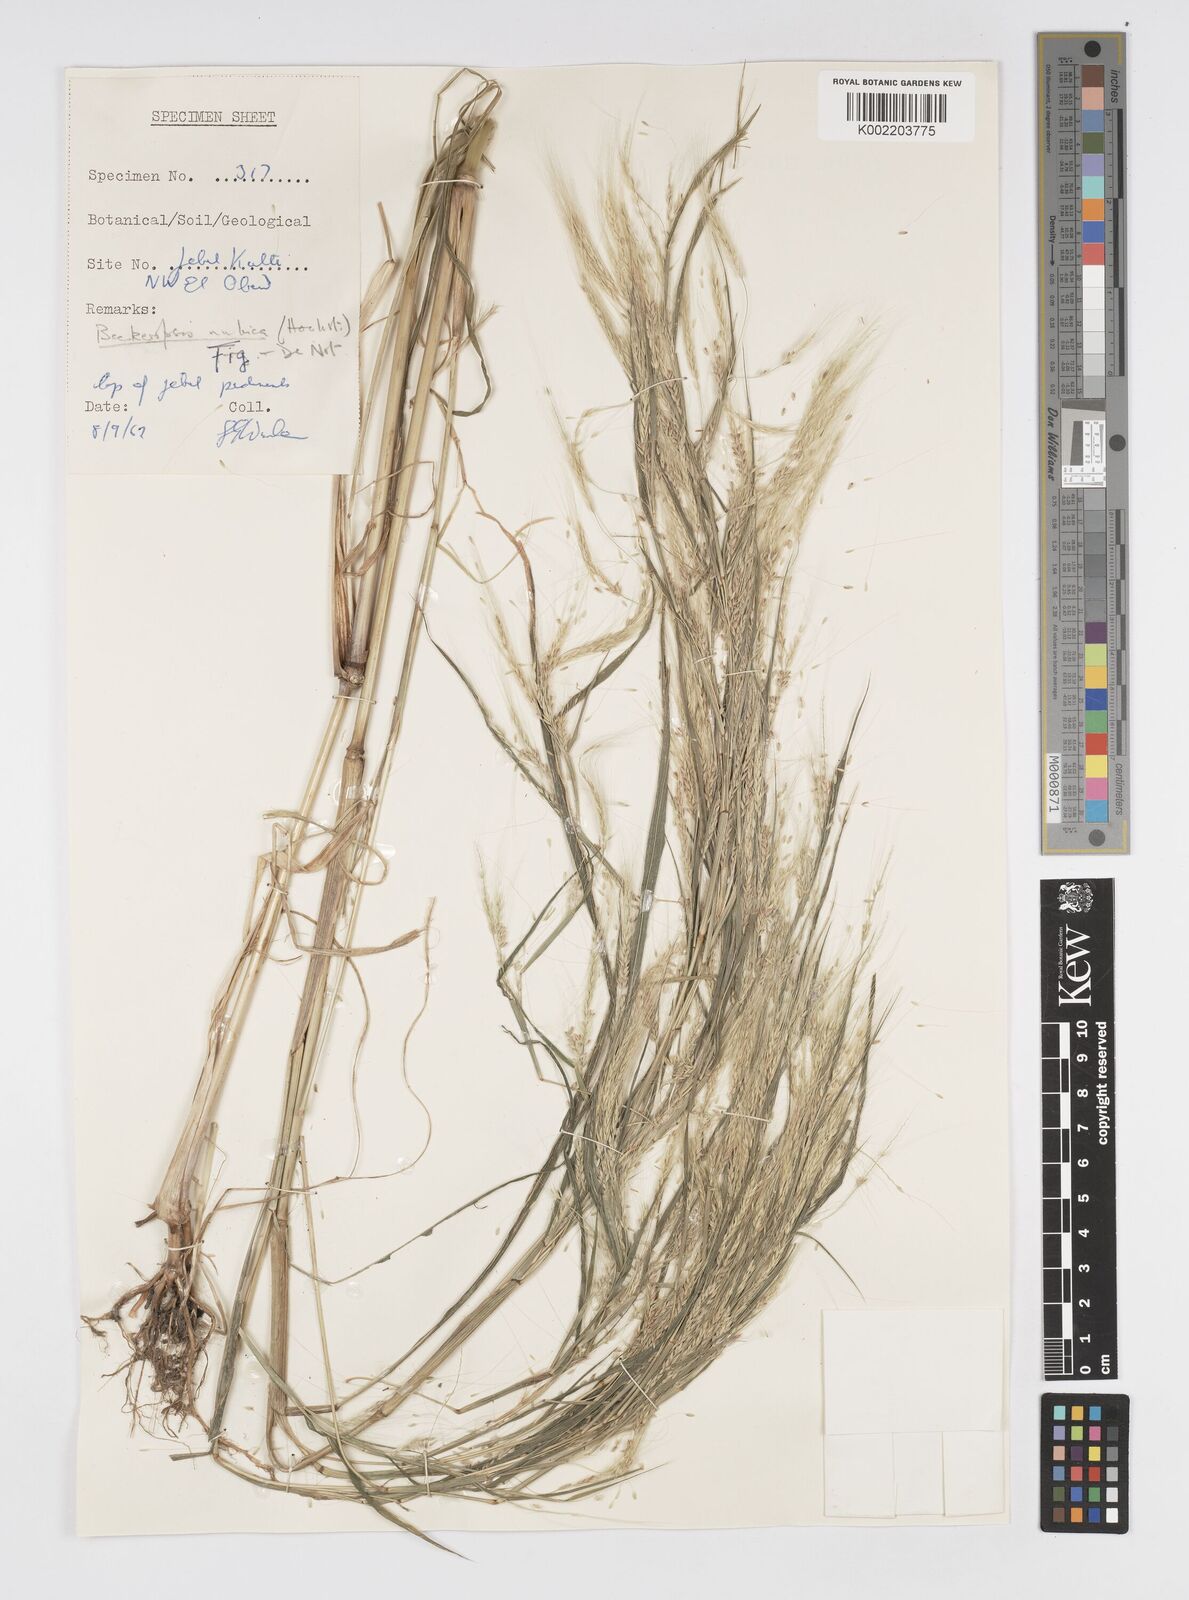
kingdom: Plantae
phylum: Tracheophyta
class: Liliopsida
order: Poales
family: Poaceae
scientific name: Poaceae
